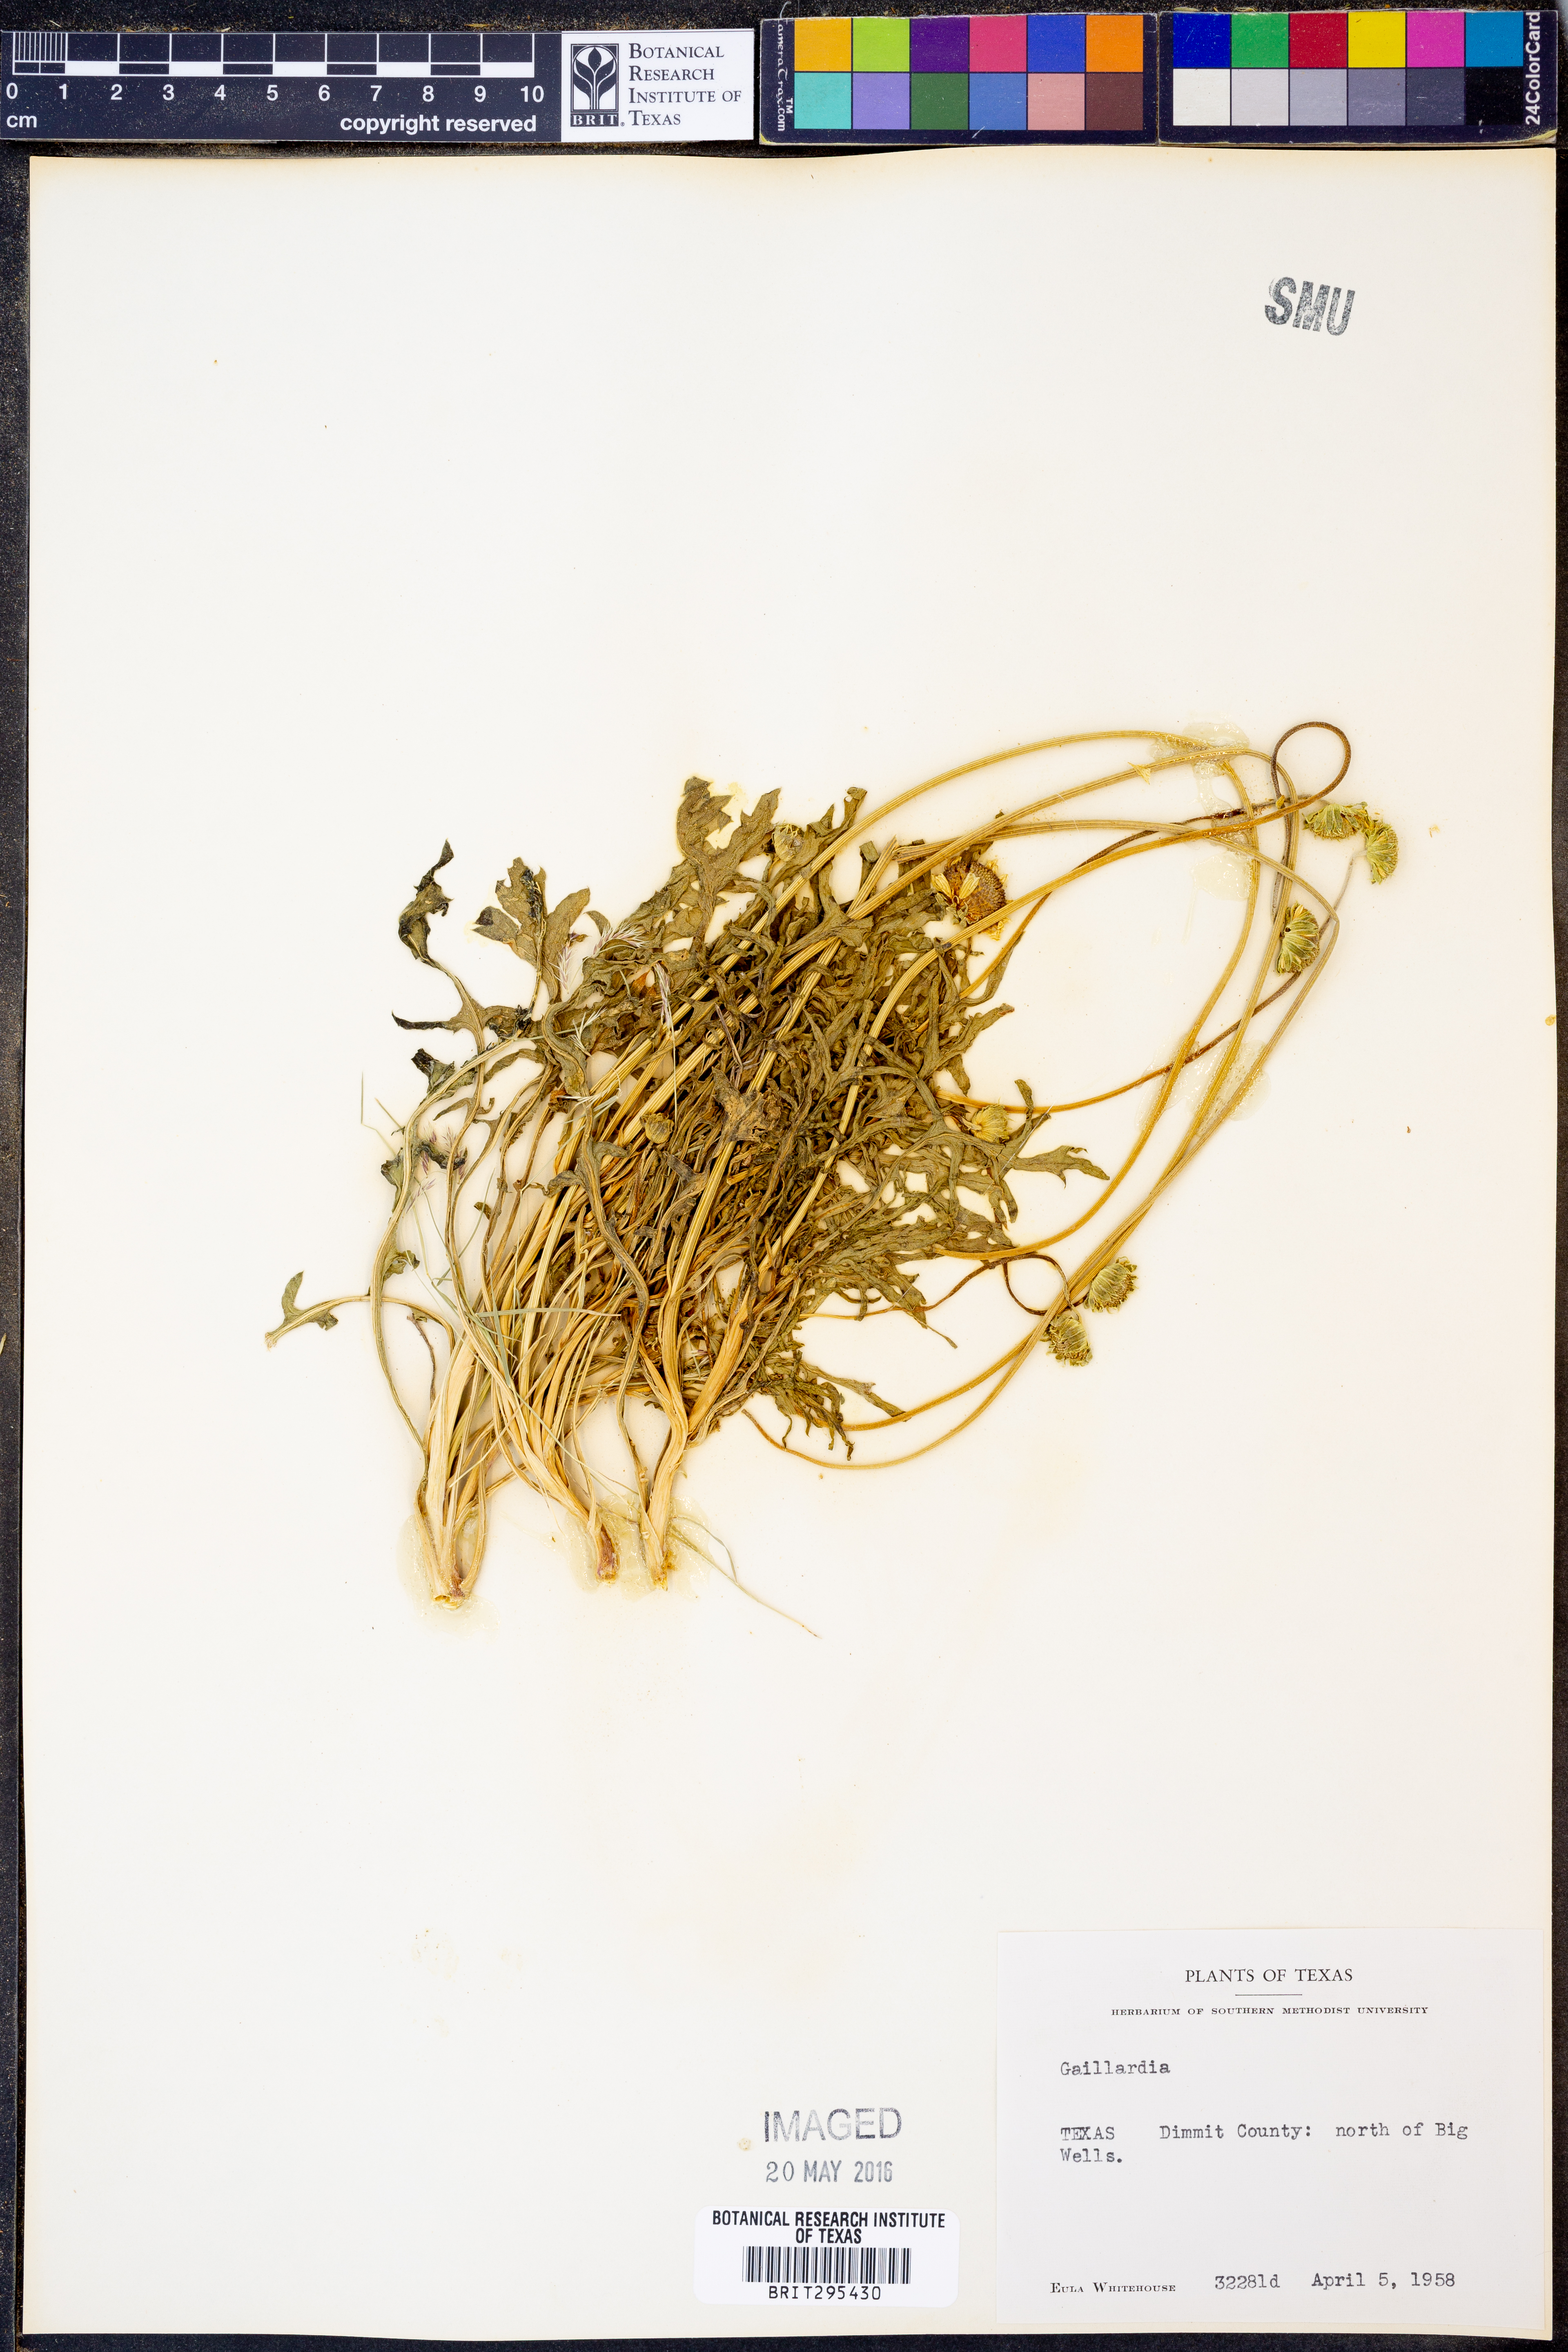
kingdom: Plantae
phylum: Tracheophyta
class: Magnoliopsida
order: Asterales
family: Asteraceae
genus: Gaillardia
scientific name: Gaillardia
